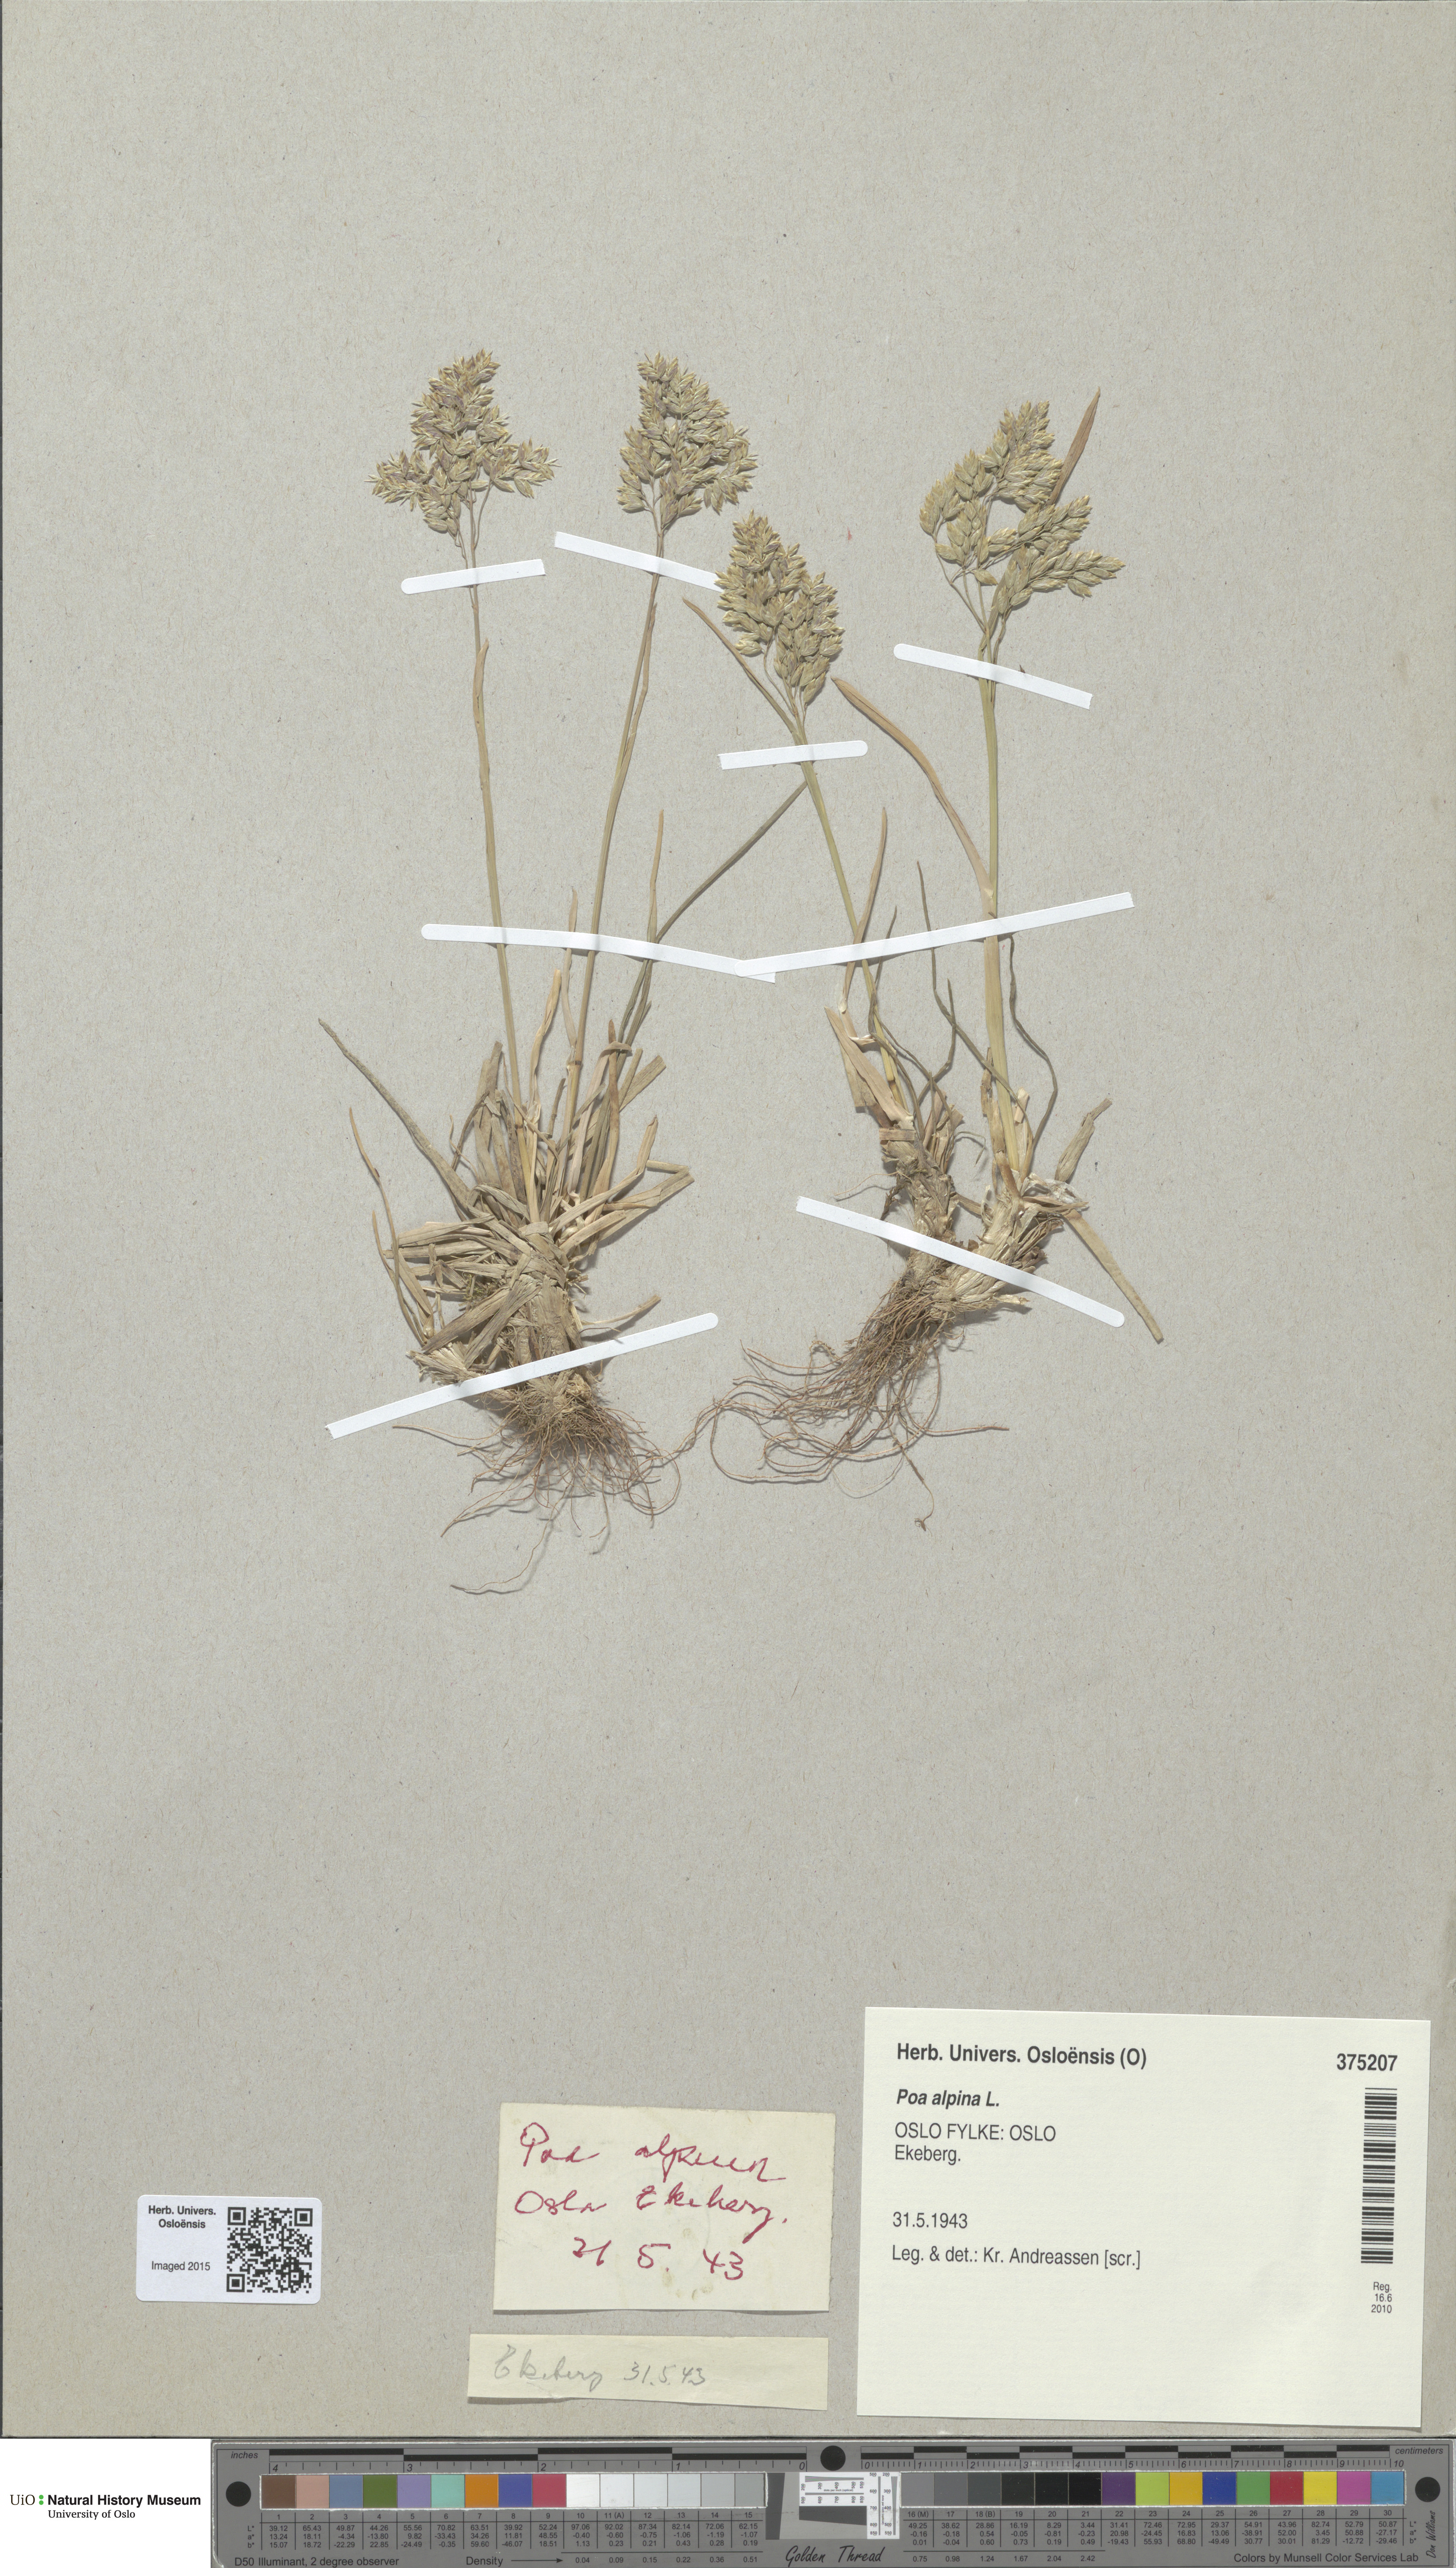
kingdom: Plantae
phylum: Tracheophyta
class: Liliopsida
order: Poales
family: Poaceae
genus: Poa
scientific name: Poa alpina
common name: Alpine bluegrass
